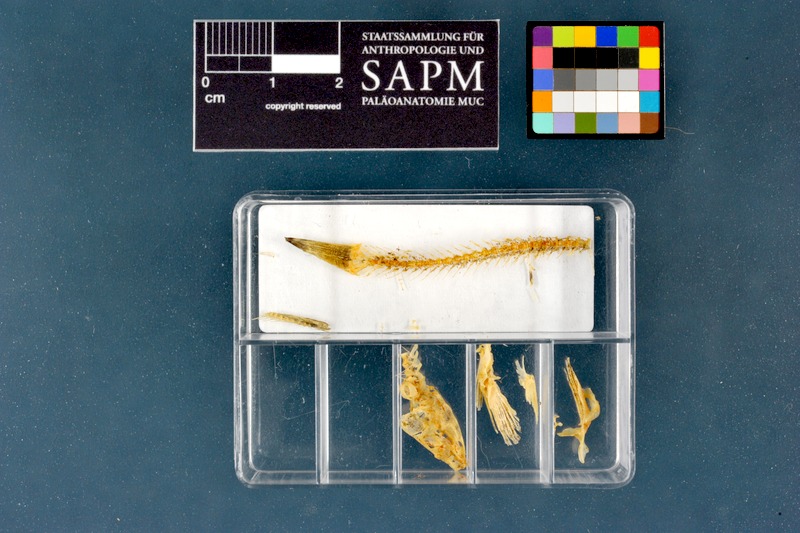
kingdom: Animalia
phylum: Chordata
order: Cypriniformes
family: Nemacheilidae
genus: Barbatula
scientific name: Barbatula barbatula
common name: Stone loach
